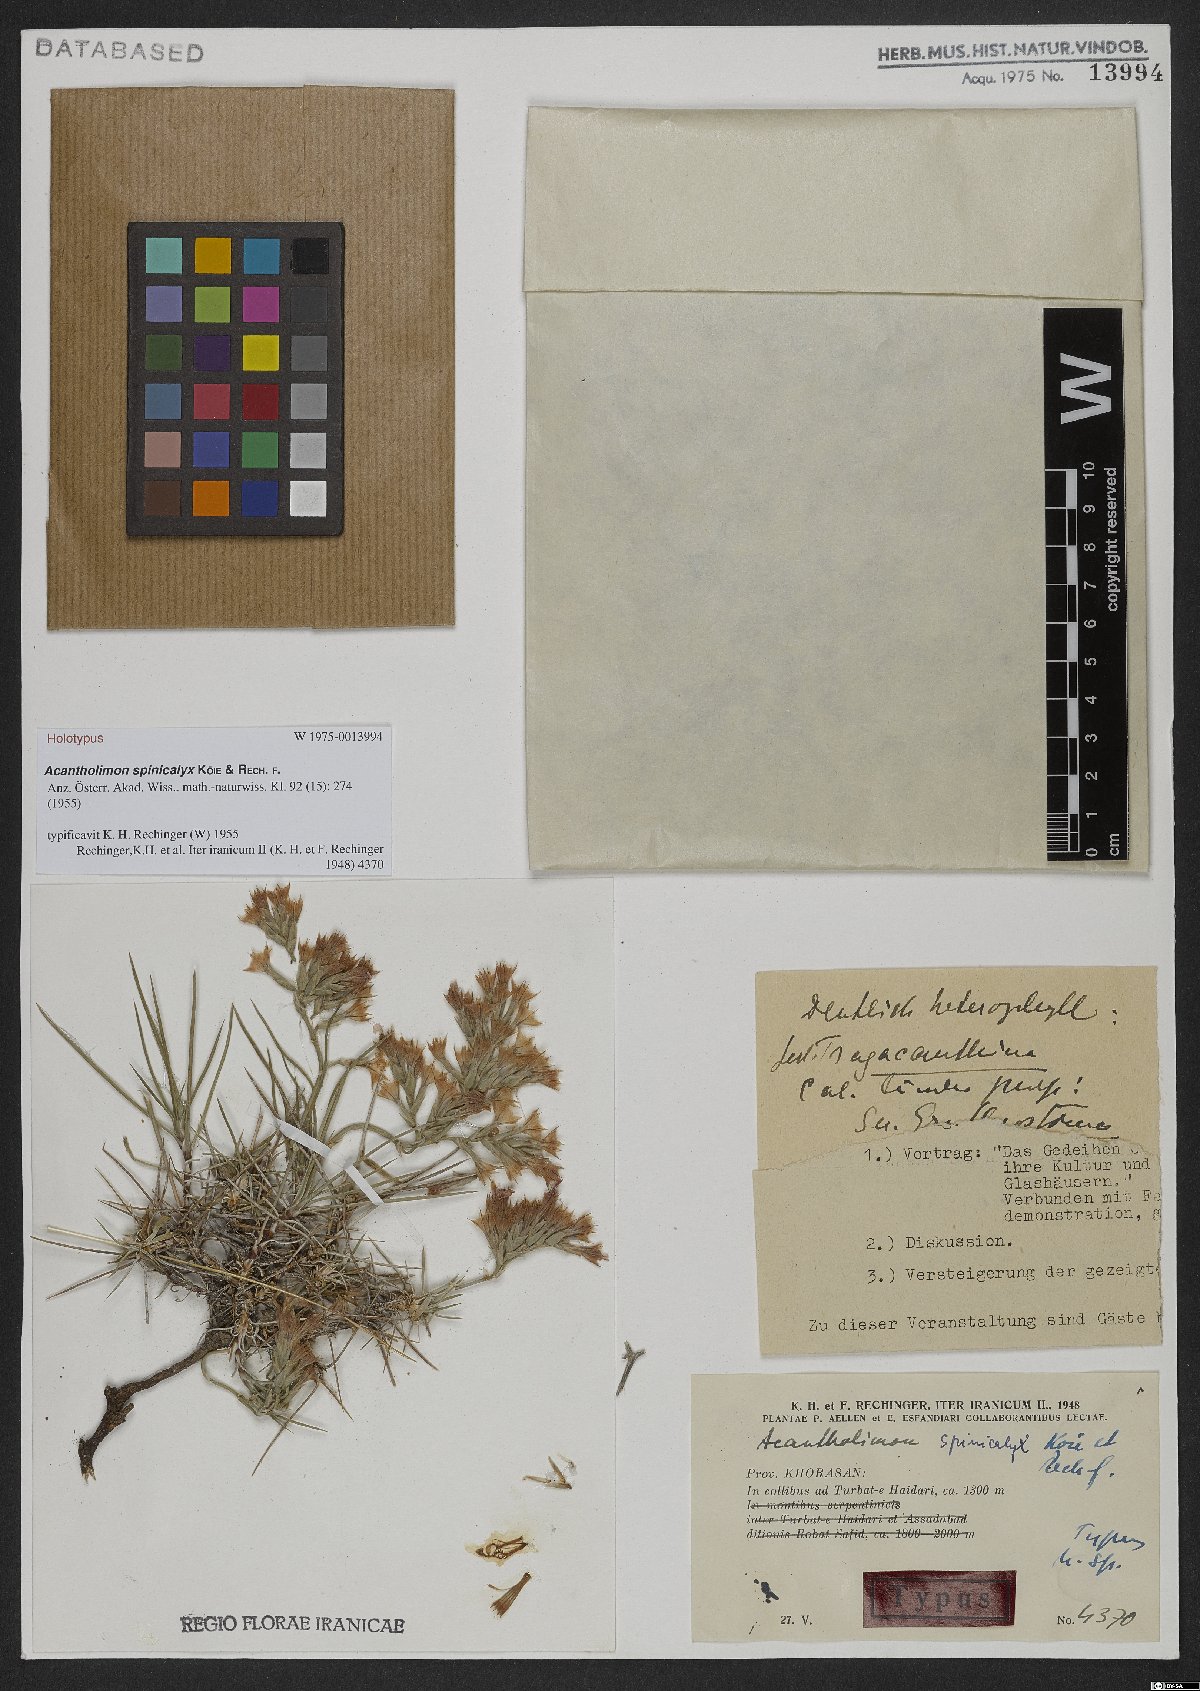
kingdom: Plantae
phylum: Tracheophyta
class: Magnoliopsida
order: Caryophyllales
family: Plumbaginaceae
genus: Acantholimon
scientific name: Acantholimon spinicalyx
